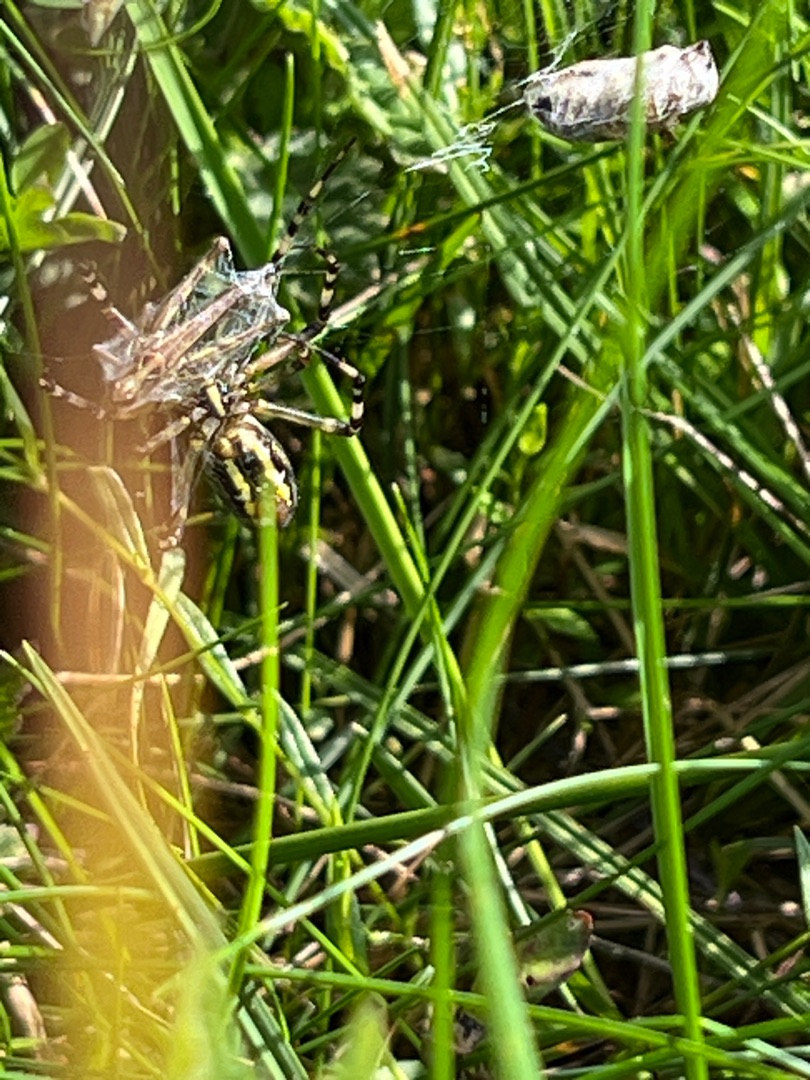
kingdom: Animalia
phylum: Arthropoda
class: Arachnida
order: Araneae
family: Araneidae
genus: Argiope
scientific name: Argiope bruennichi
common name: Hvepseedderkop
